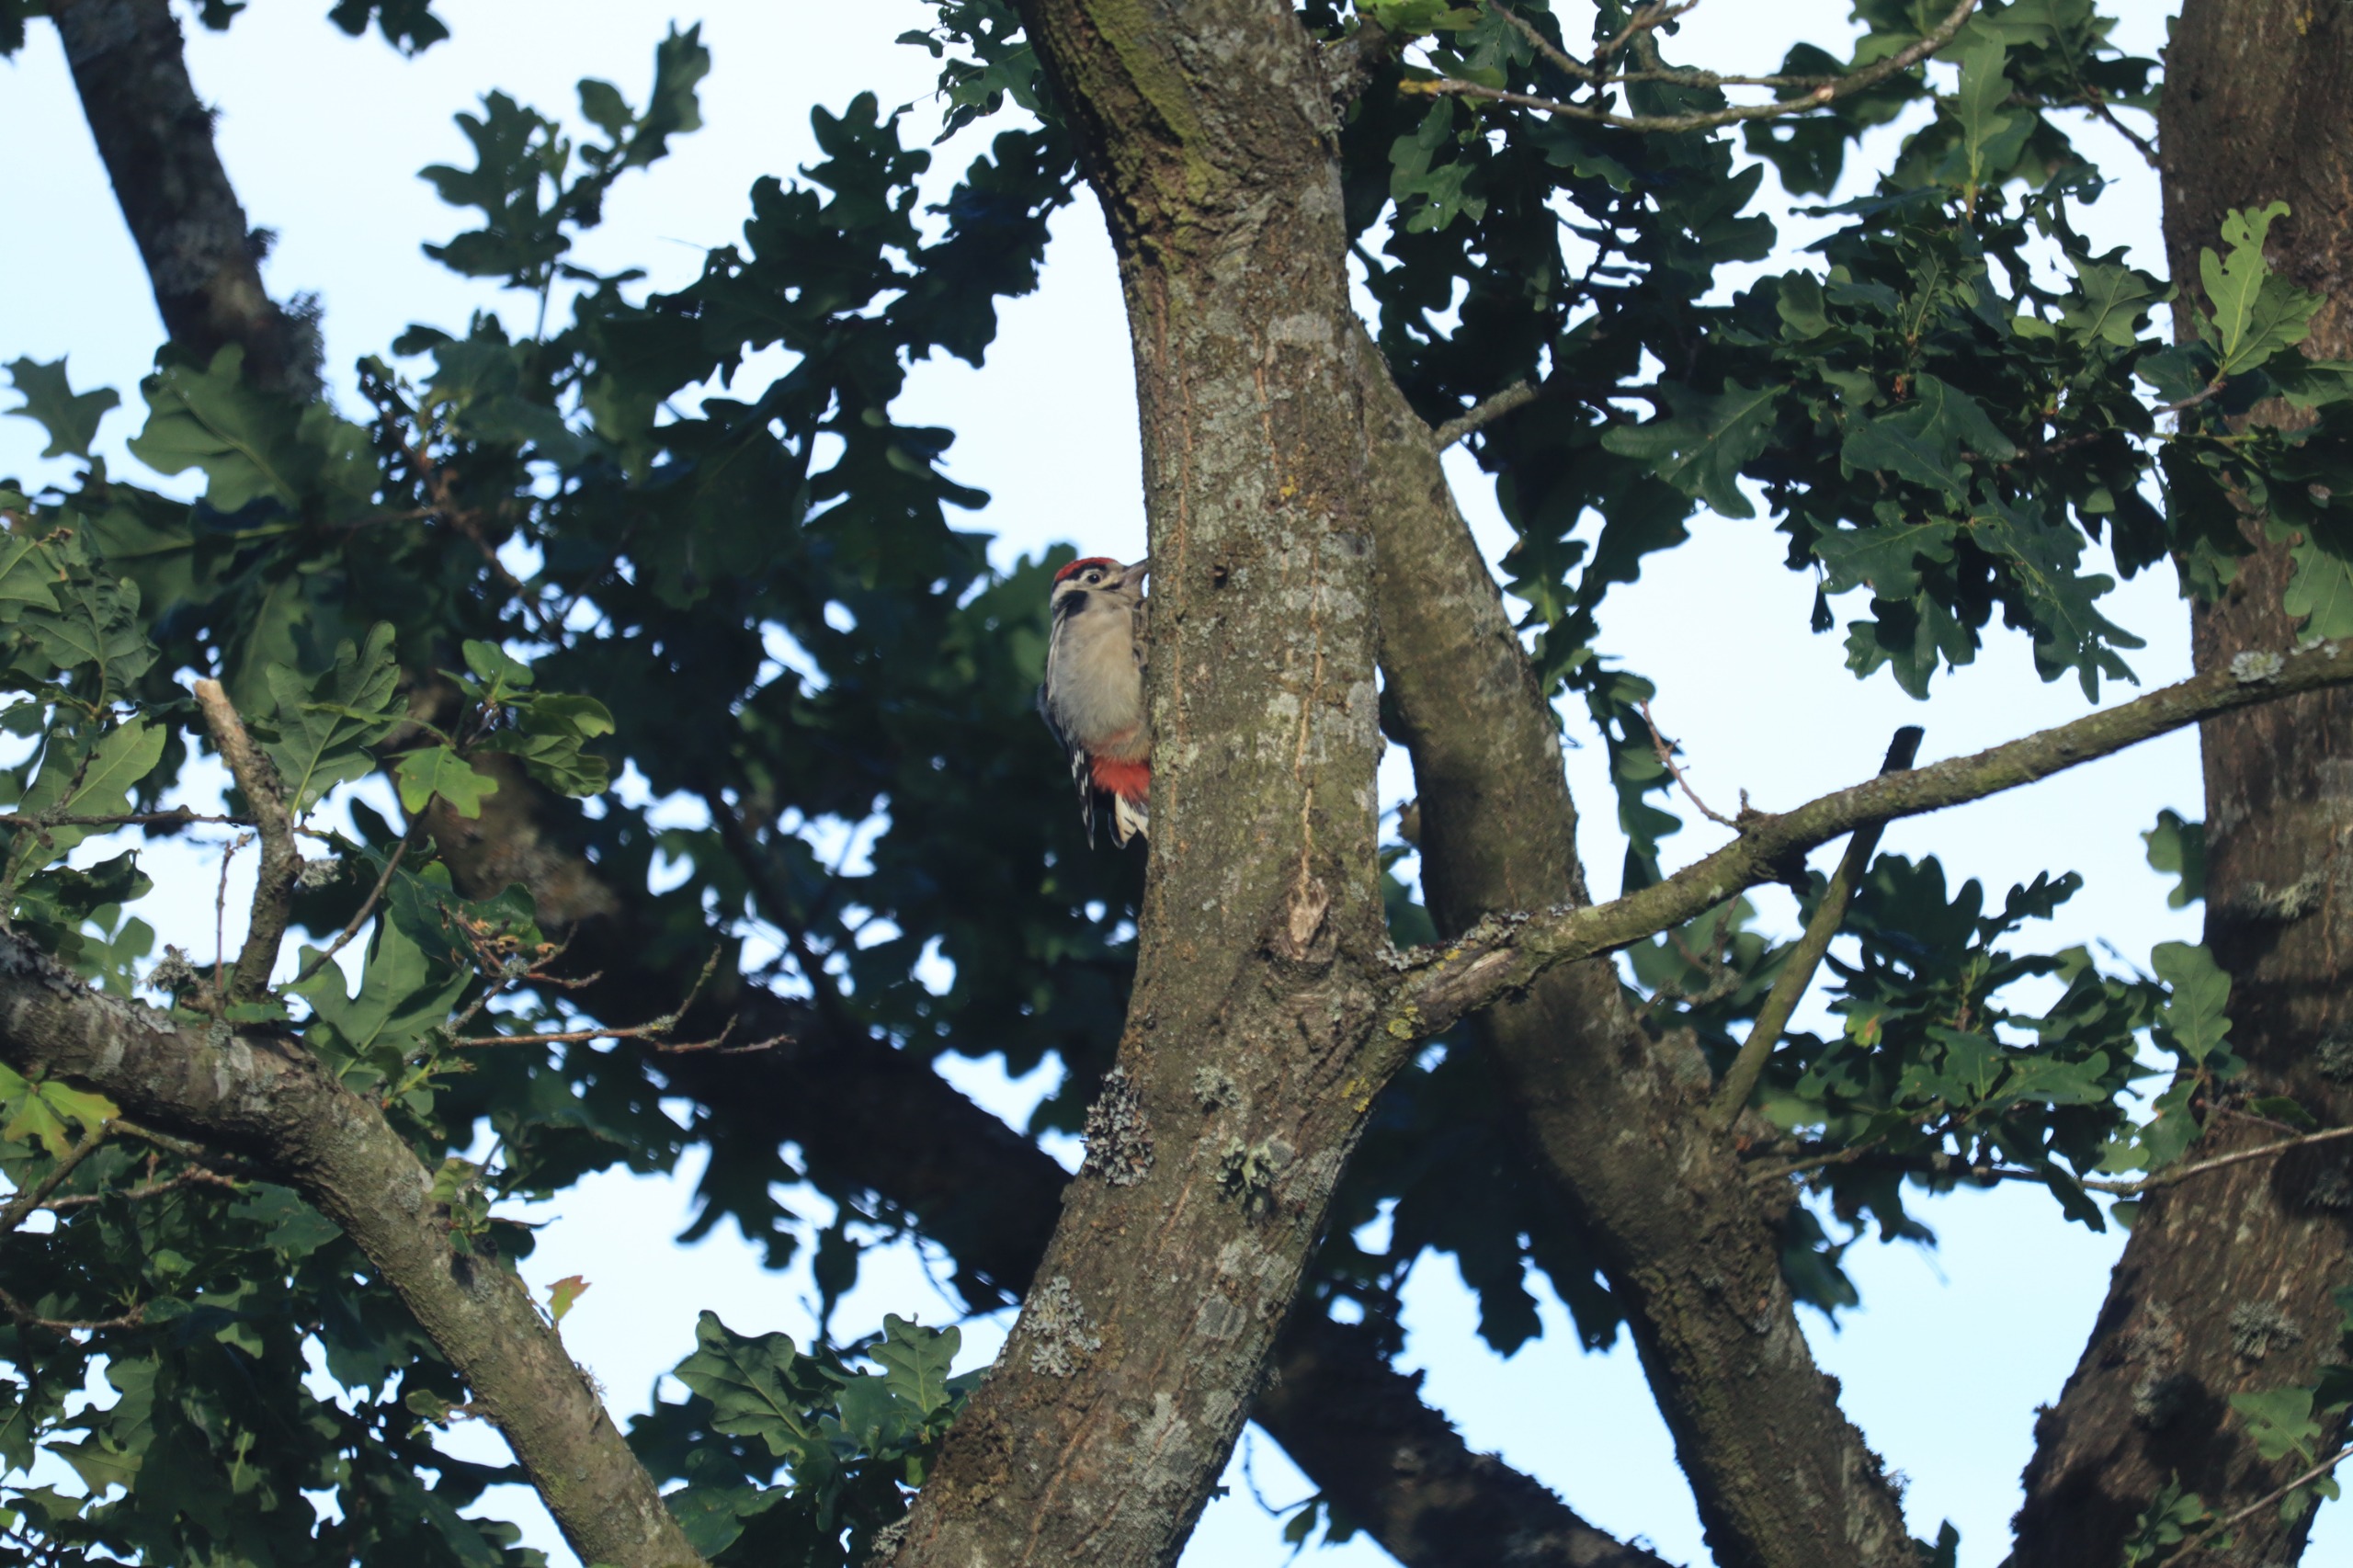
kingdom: Animalia
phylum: Chordata
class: Aves
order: Piciformes
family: Picidae
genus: Dendrocopos
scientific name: Dendrocopos major
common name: Stor flagspætte
